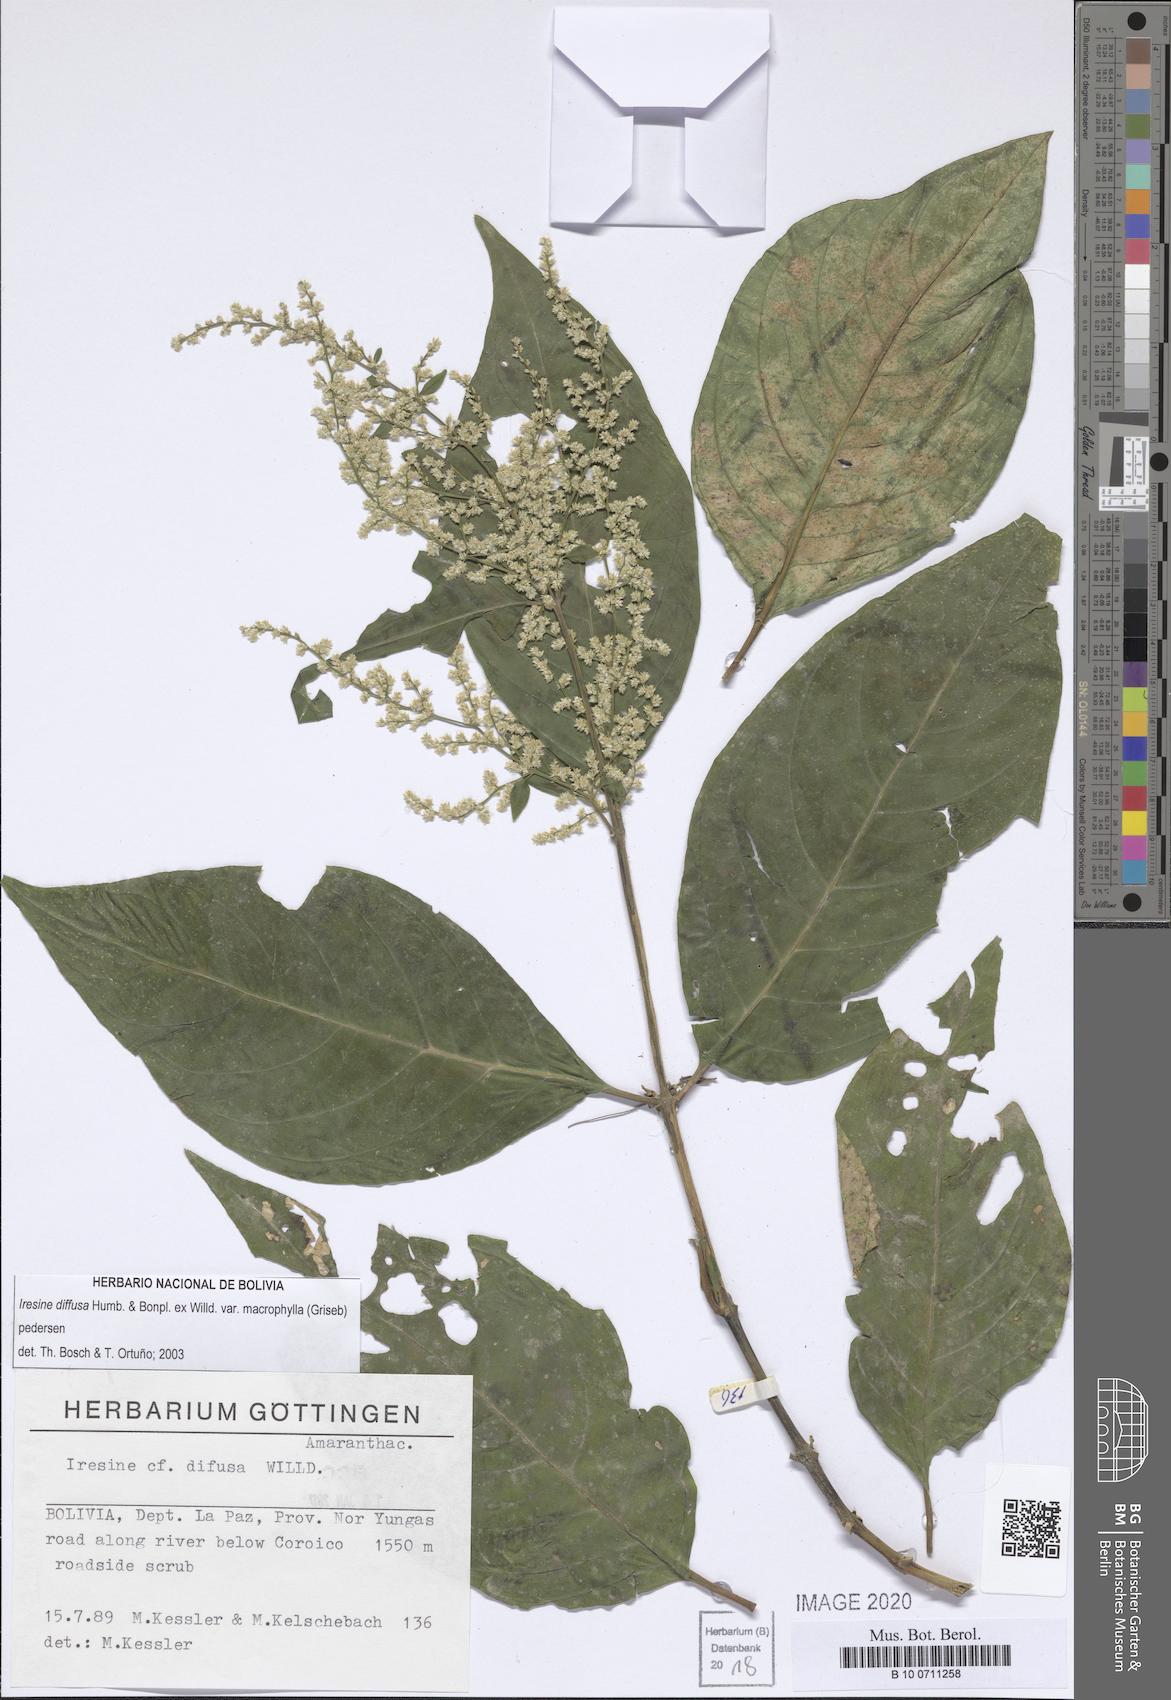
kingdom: Plantae
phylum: Tracheophyta
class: Magnoliopsida
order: Caryophyllales
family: Amaranthaceae
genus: Iresine
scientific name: Iresine diffusa
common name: Juba's-bush
